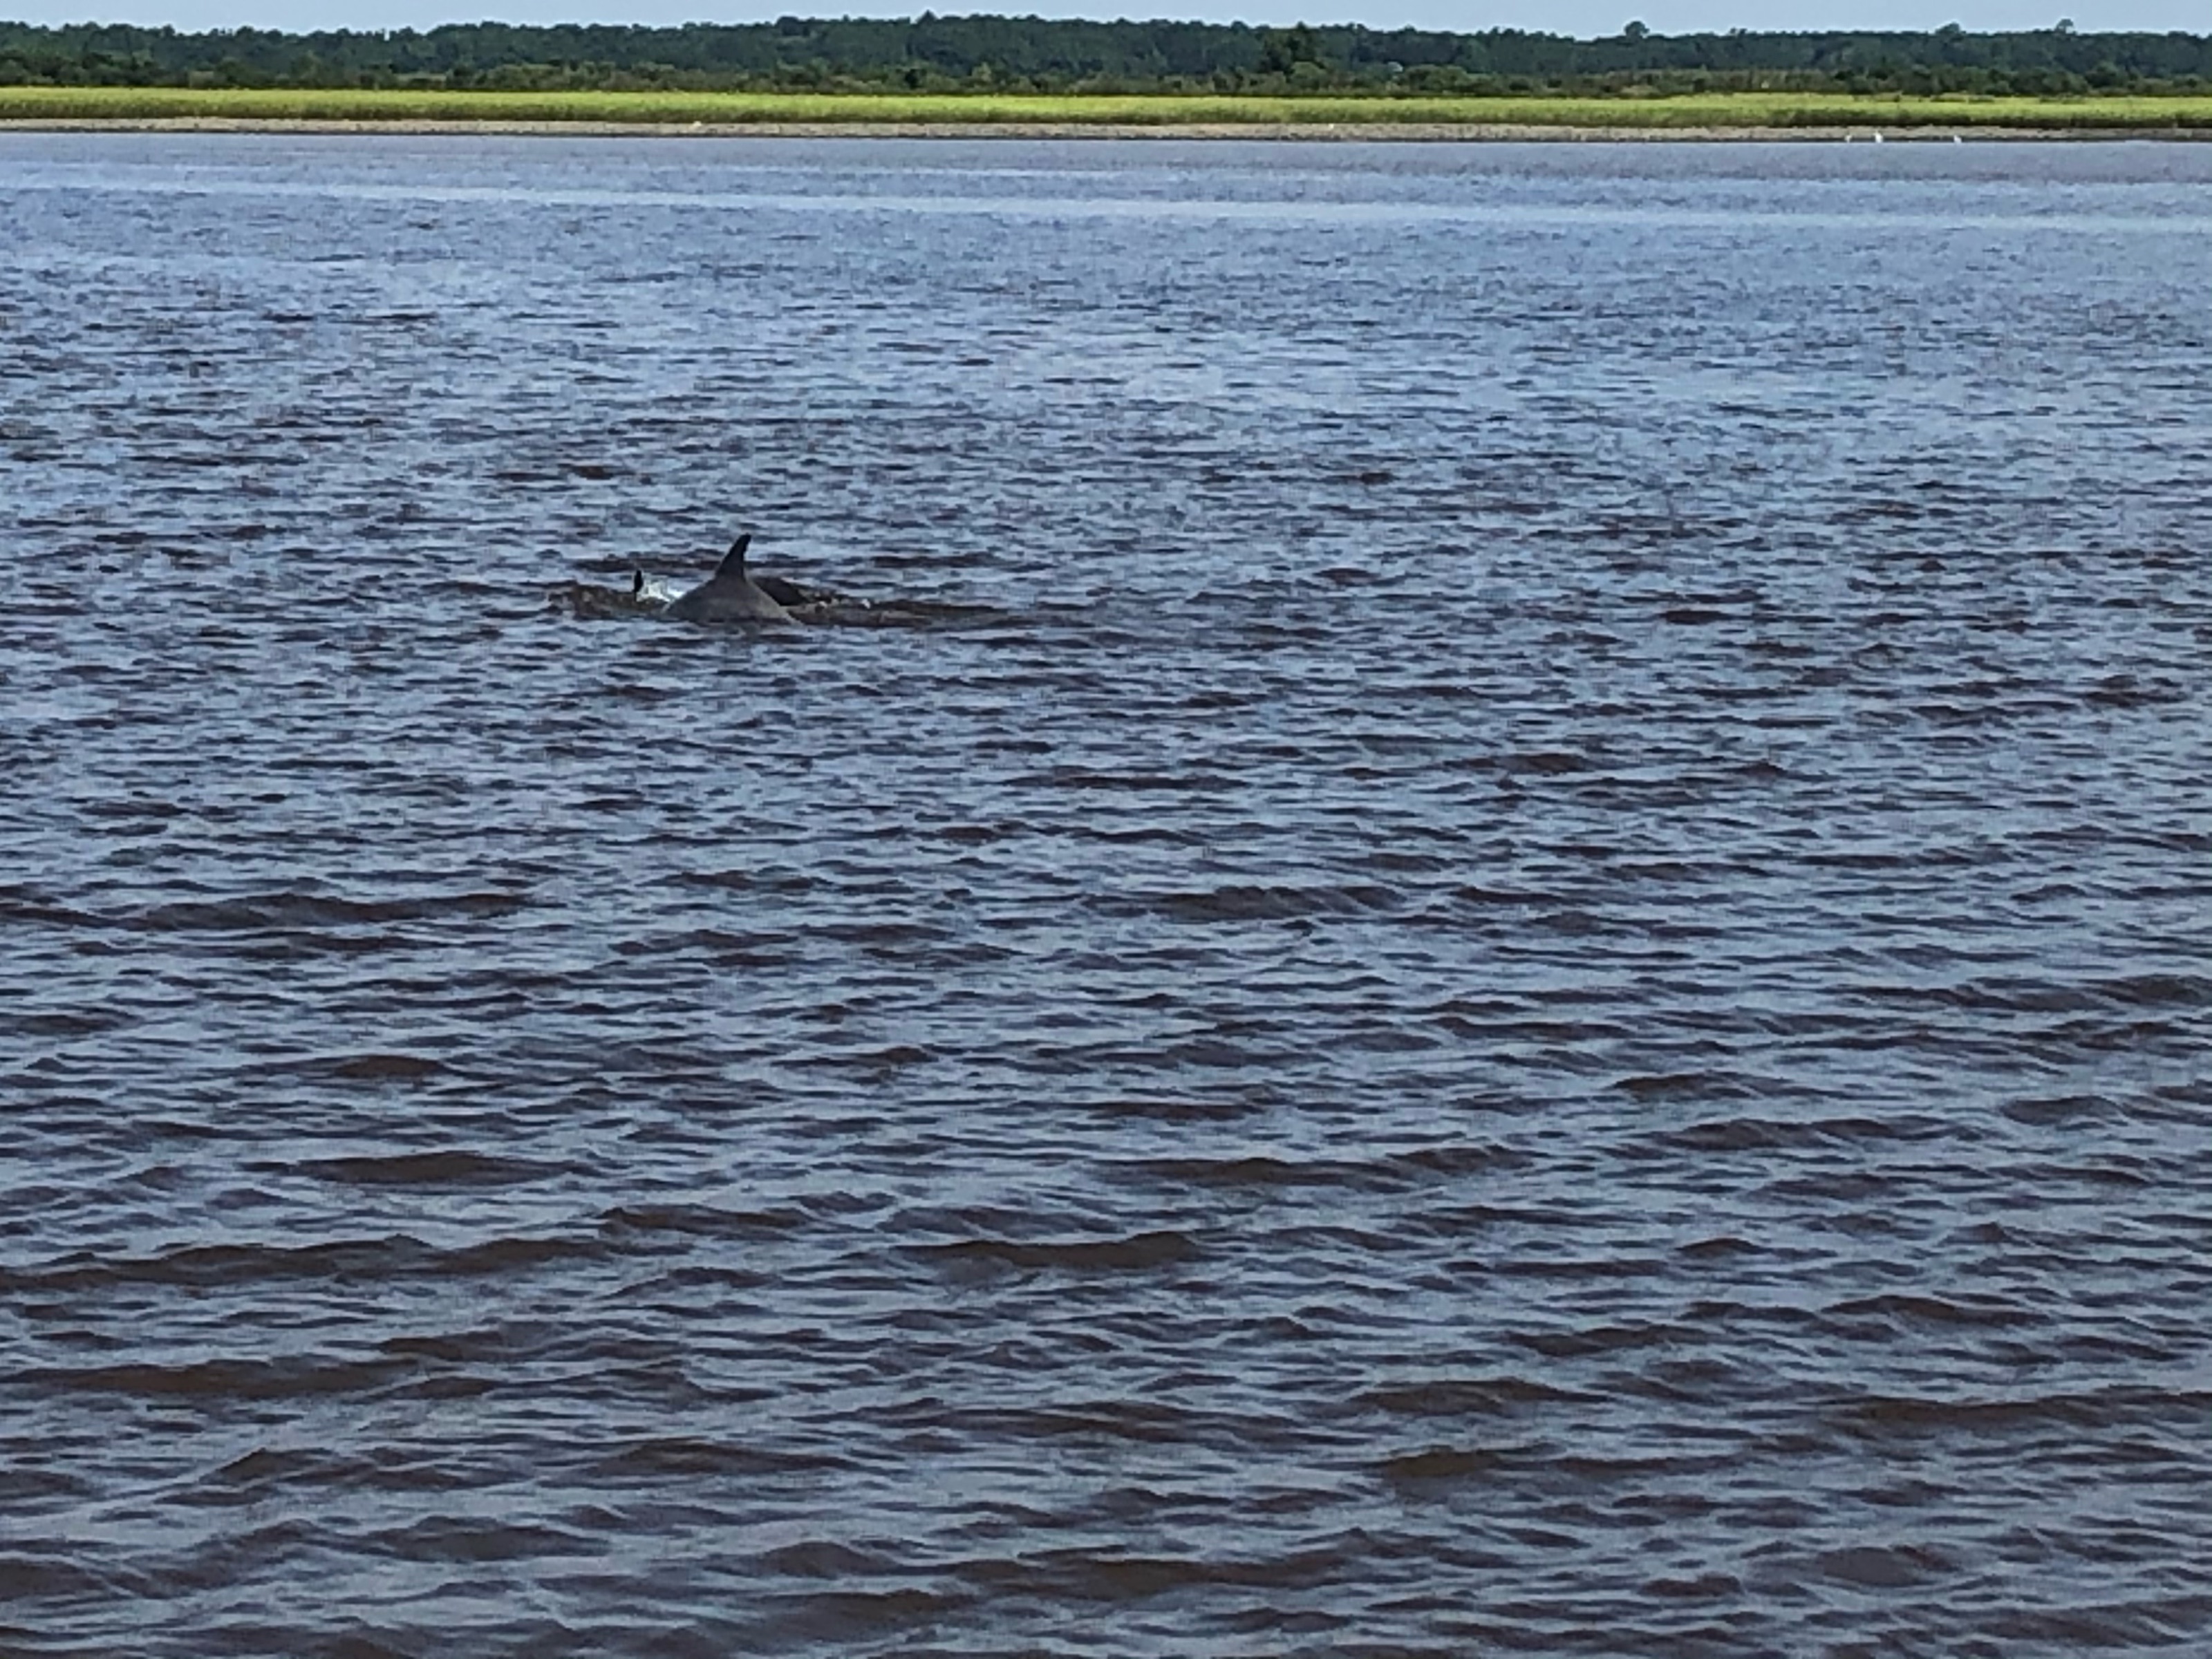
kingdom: Animalia
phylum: Chordata
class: Mammalia
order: Cetacea
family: Delphinidae
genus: Tursiops
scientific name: Tursiops truncatus
